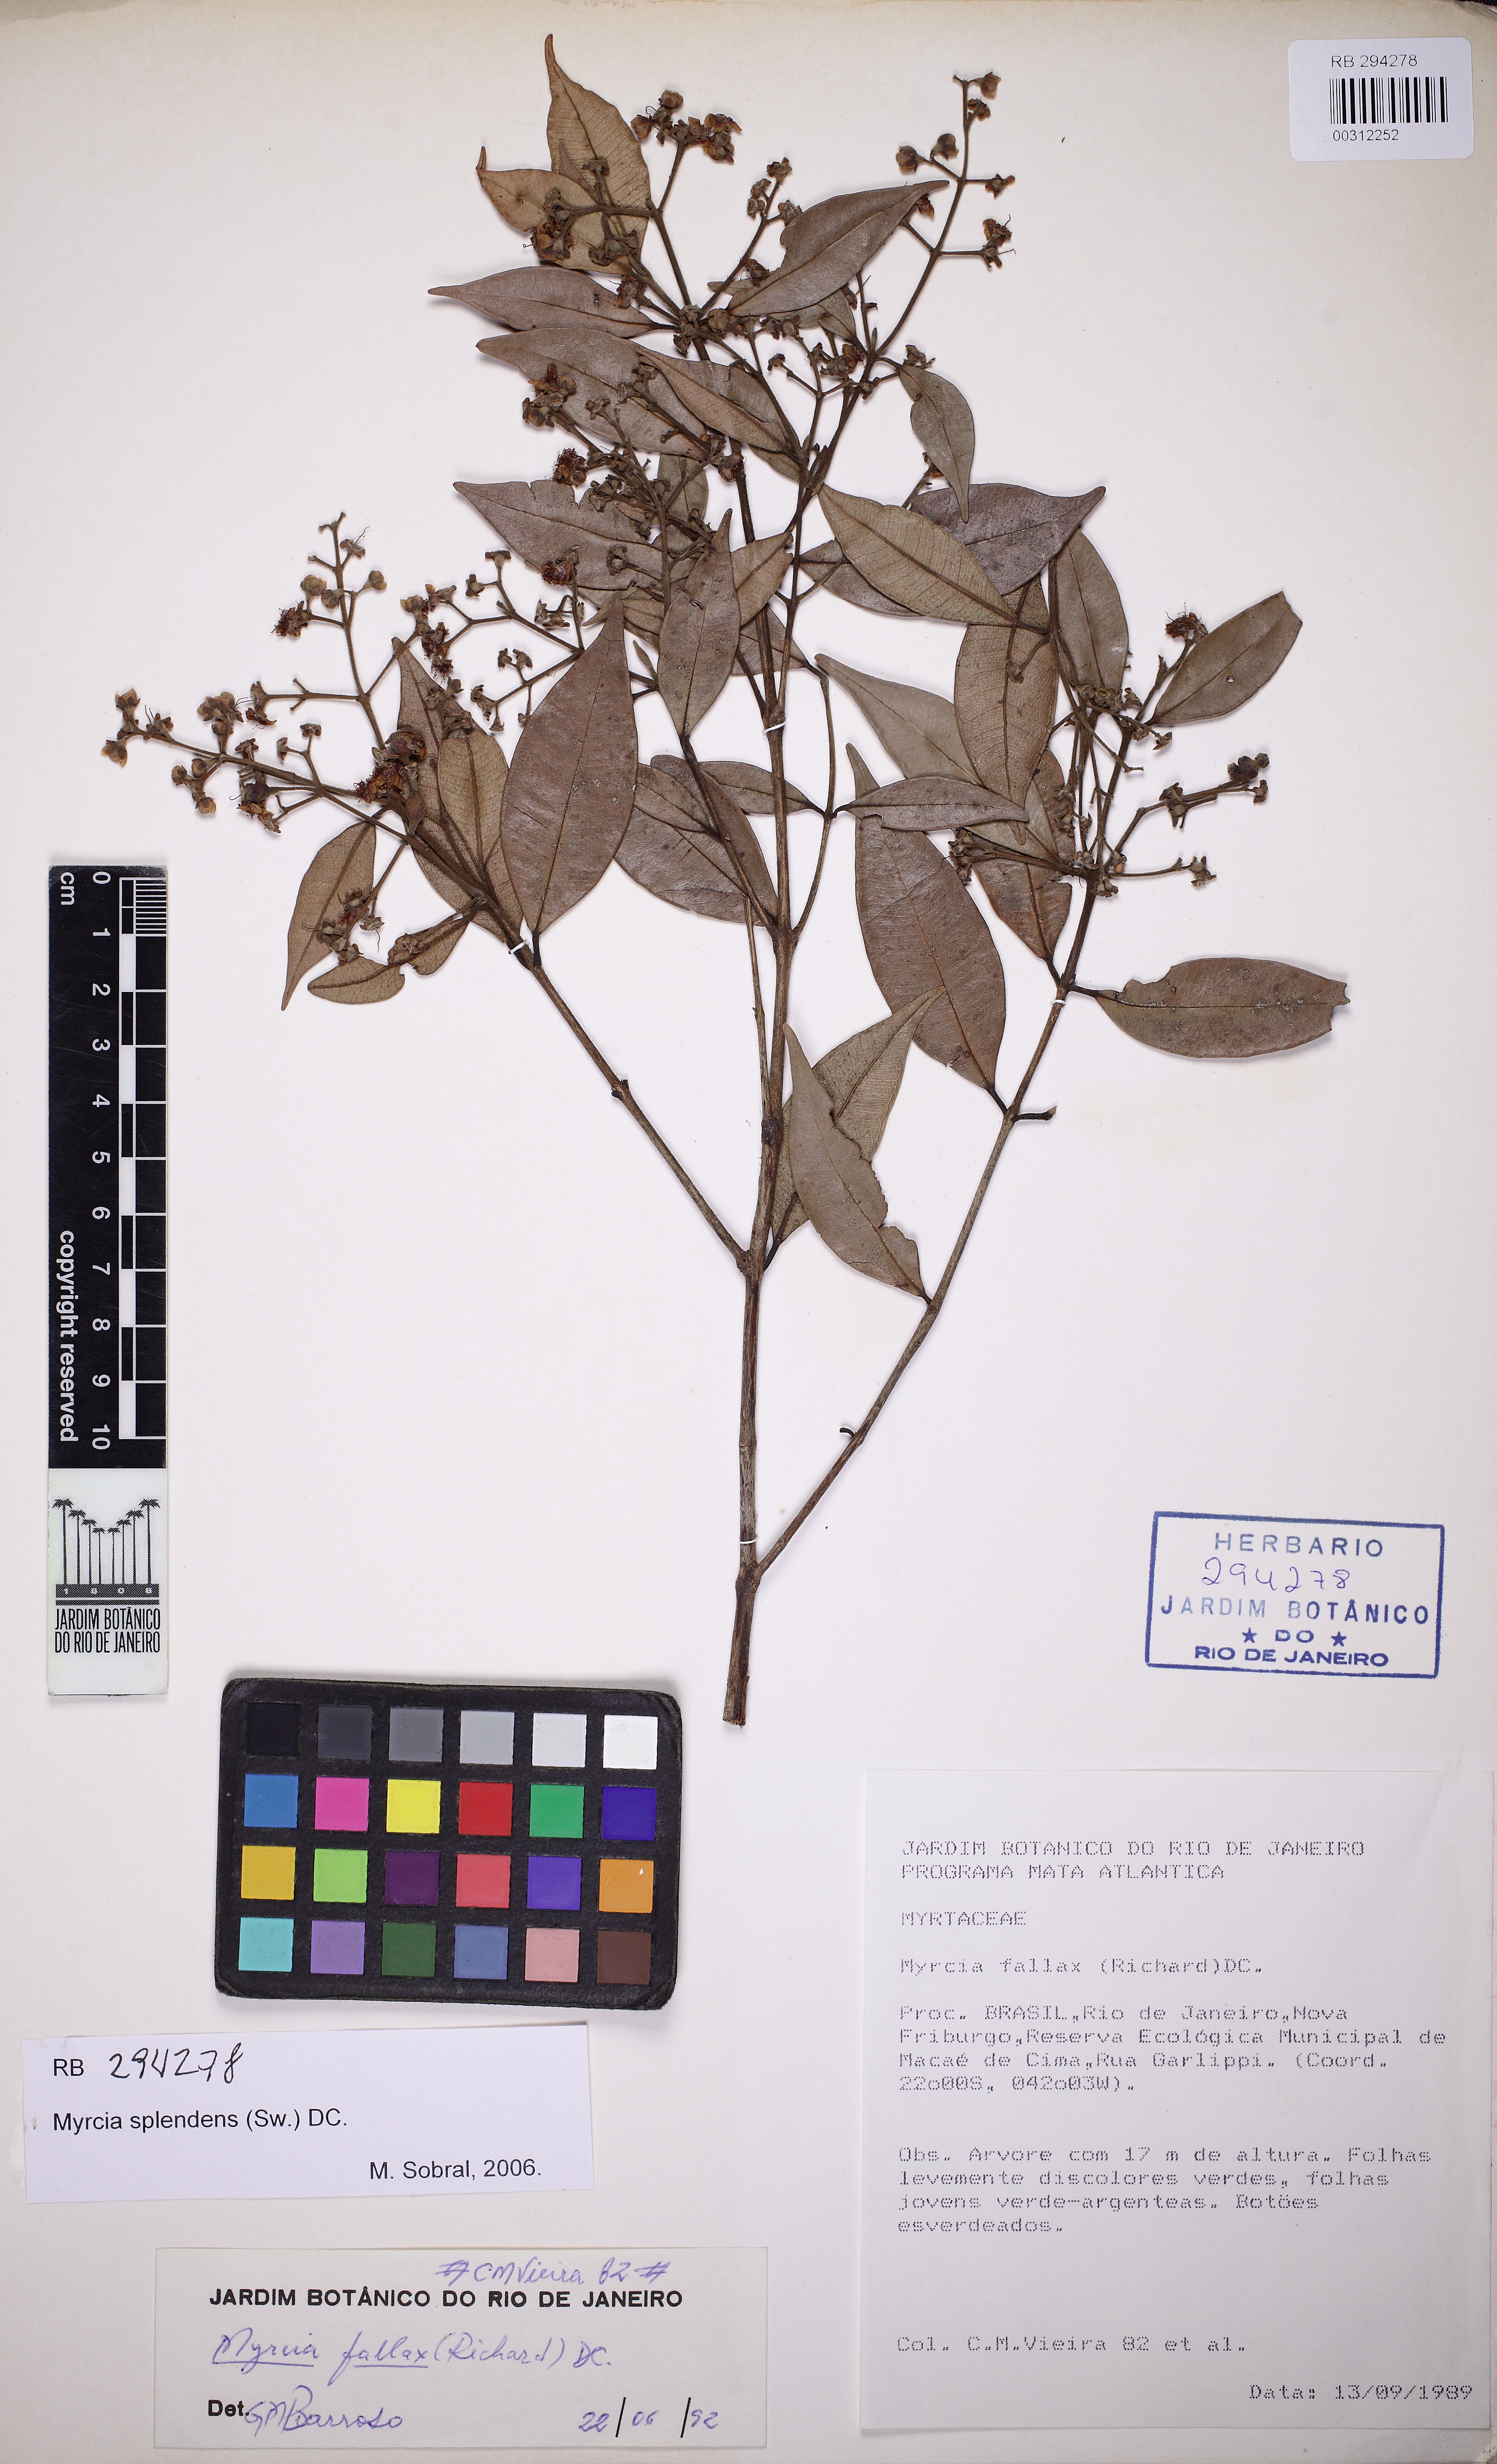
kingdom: Plantae
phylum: Tracheophyta
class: Magnoliopsida
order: Myrtales
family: Myrtaceae
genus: Myrcia
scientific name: Myrcia splendens
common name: Surinam cherry
